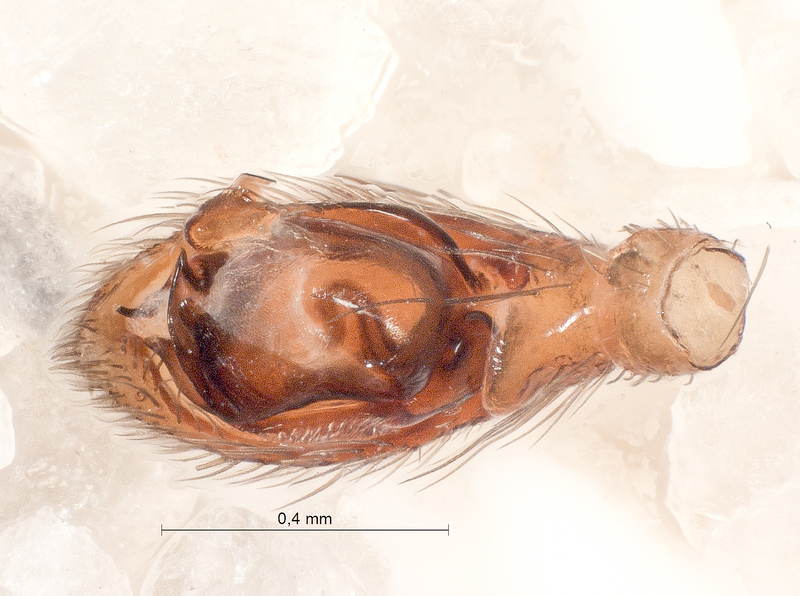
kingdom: Animalia
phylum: Arthropoda
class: Arachnida
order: Araneae
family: Gnaphosidae
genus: Zelotes
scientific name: Zelotes electus
